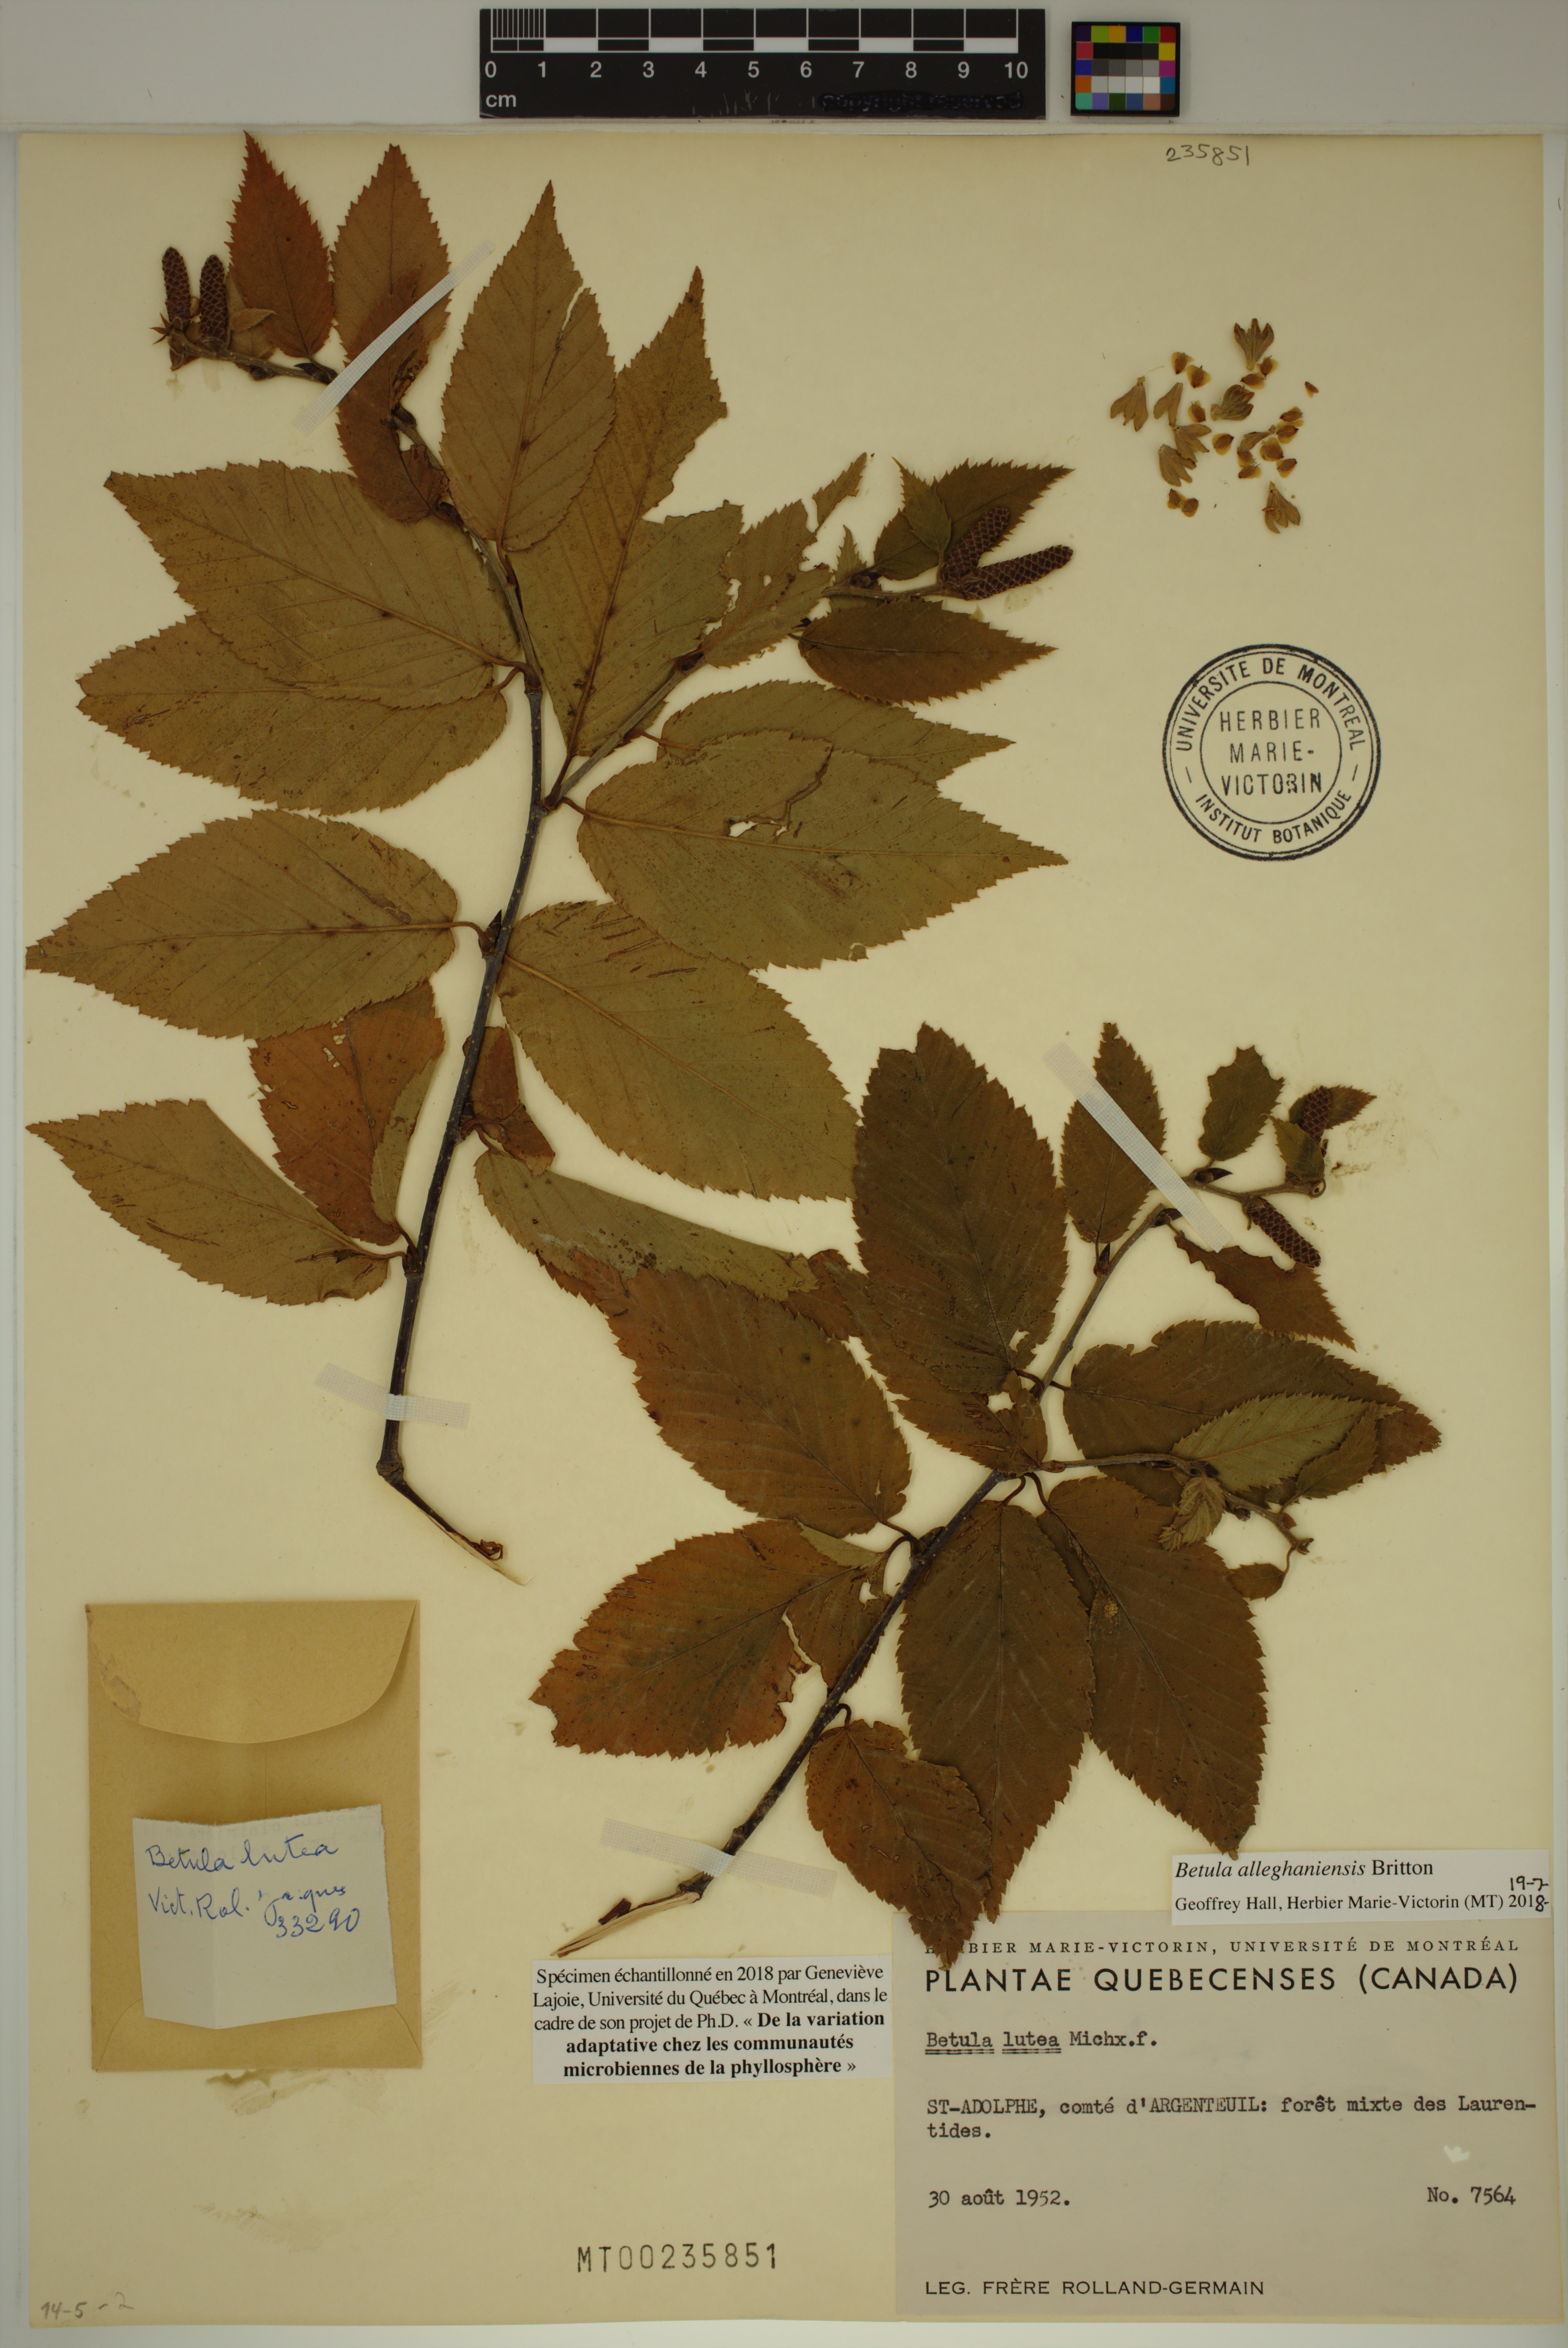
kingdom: Plantae
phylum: Tracheophyta
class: Magnoliopsida
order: Fagales
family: Betulaceae
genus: Betula
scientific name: Betula alleghaniensis
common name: Yellow birch
